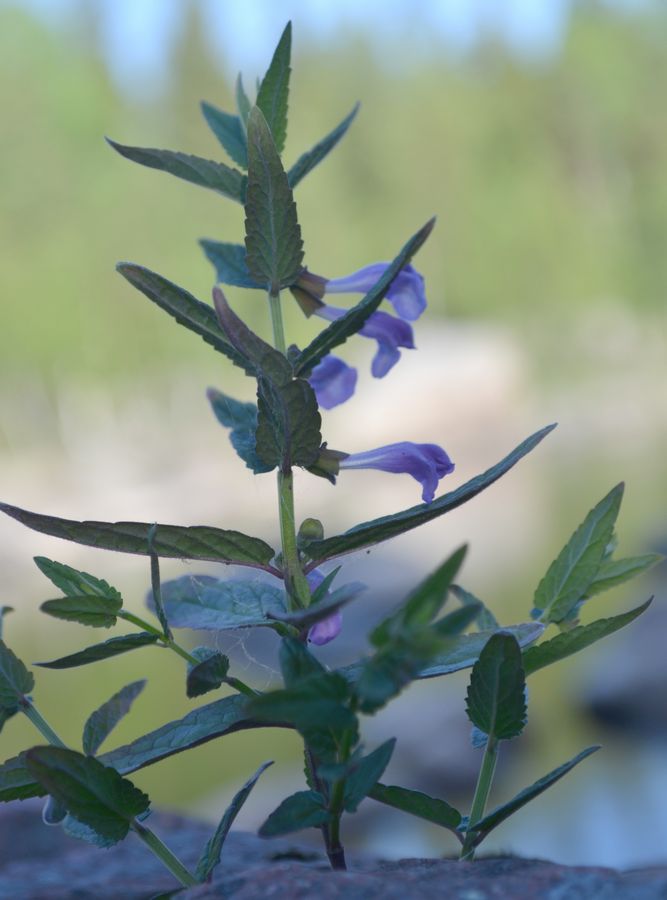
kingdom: Plantae
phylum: Tracheophyta
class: Magnoliopsida
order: Lamiales
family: Lamiaceae
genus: Scutellaria
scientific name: Scutellaria galericulata
